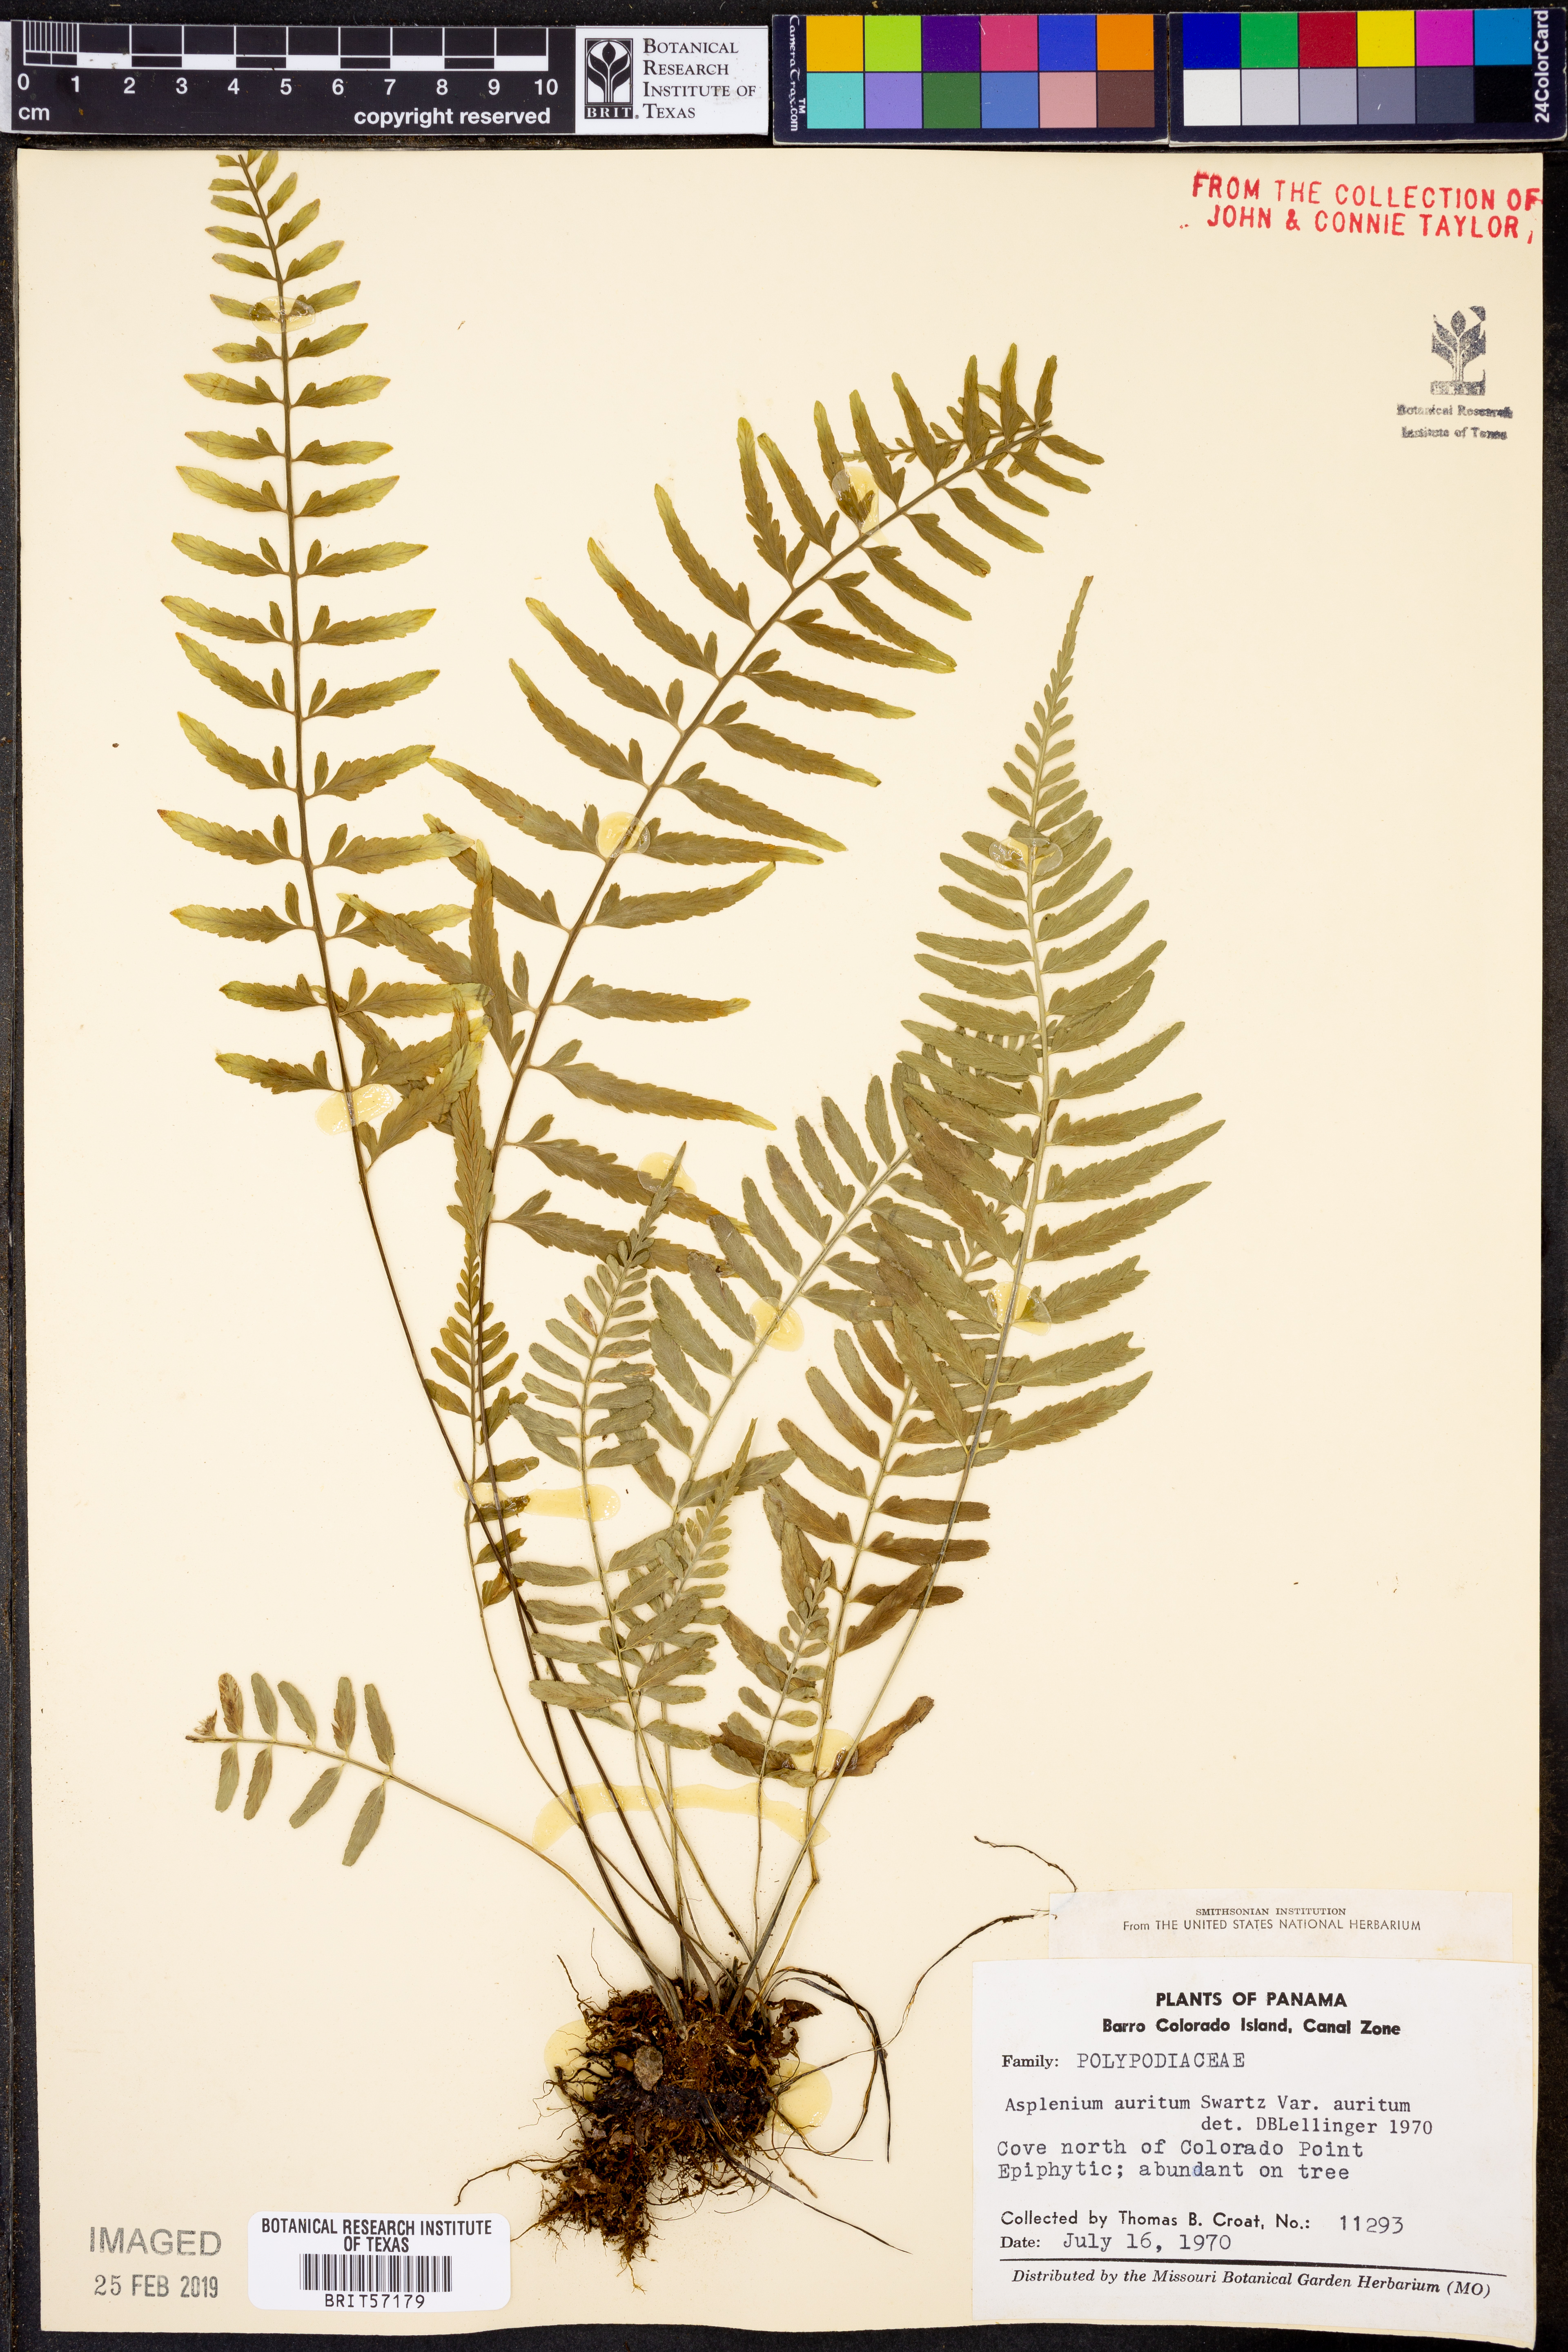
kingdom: Plantae
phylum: Tracheophyta
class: Polypodiopsida
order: Polypodiales
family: Aspleniaceae
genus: Asplenium
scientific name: Asplenium auritum
